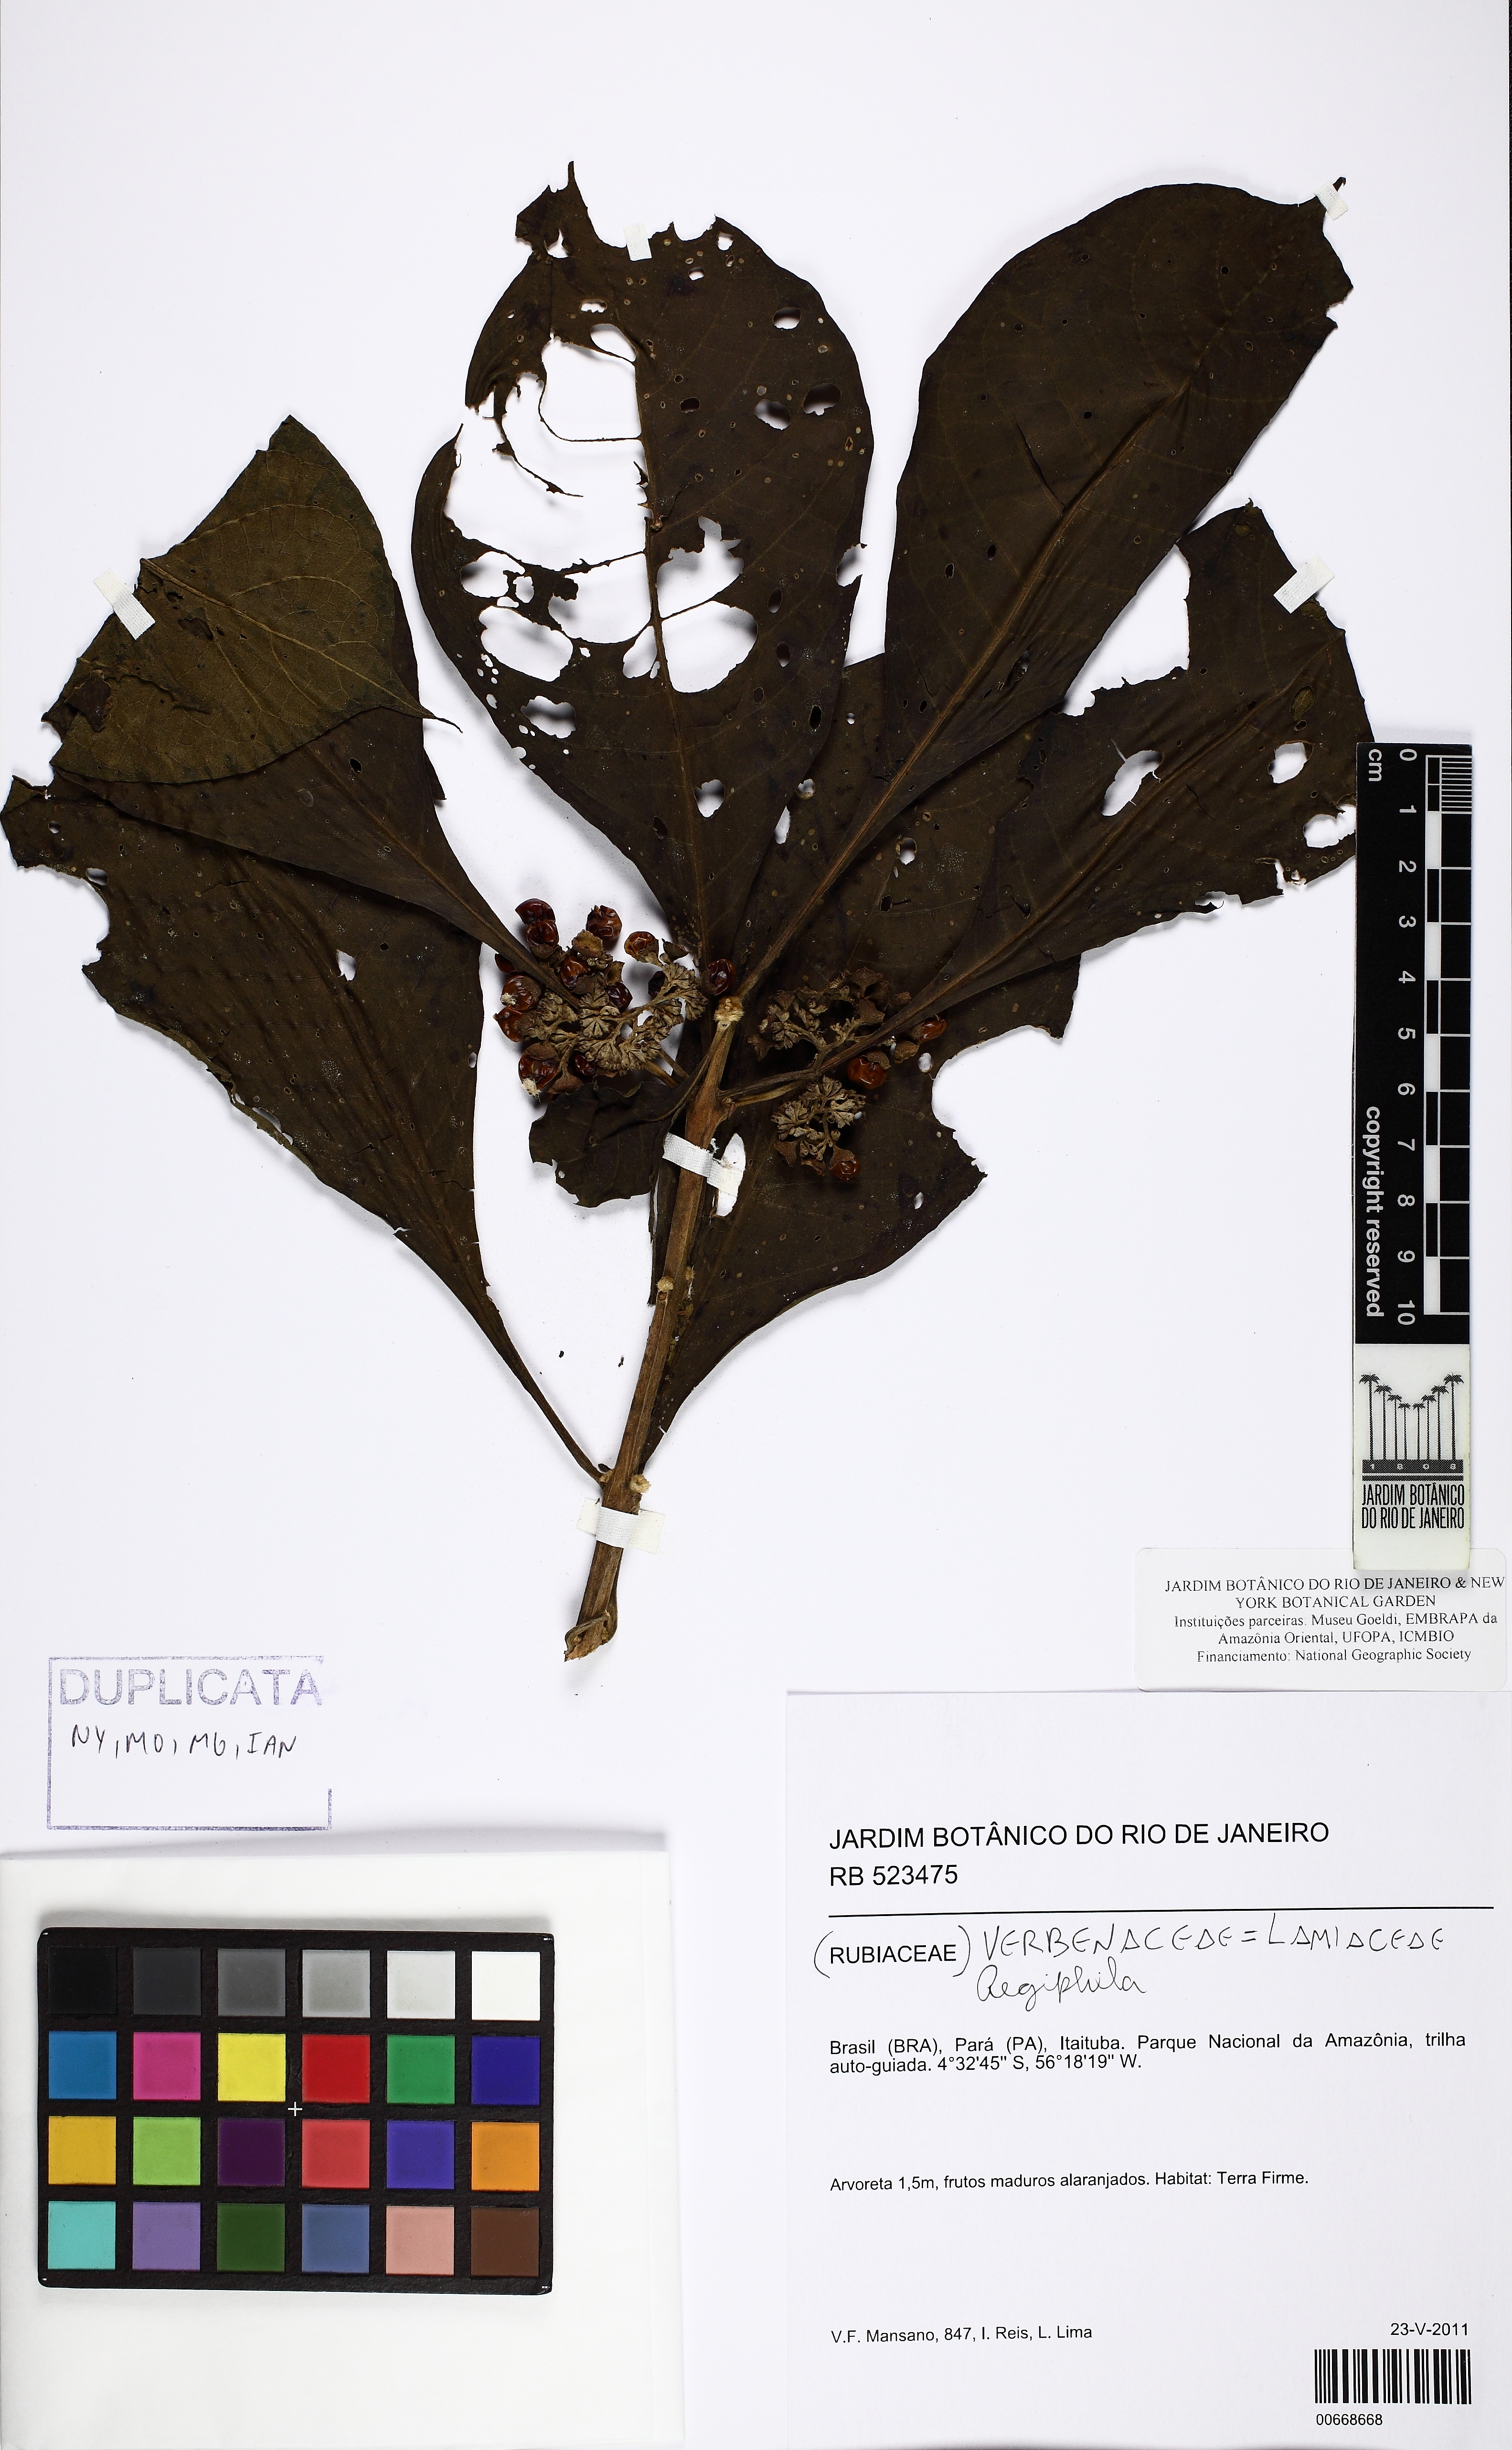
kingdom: Plantae
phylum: Tracheophyta
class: Magnoliopsida
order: Lamiales
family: Lamiaceae
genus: Aegiphila
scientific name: Aegiphila
